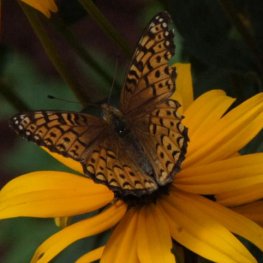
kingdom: Animalia
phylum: Arthropoda
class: Insecta
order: Lepidoptera
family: Nymphalidae
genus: Speyeria
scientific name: Speyeria atlantis
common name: Atlantis Fritillary
